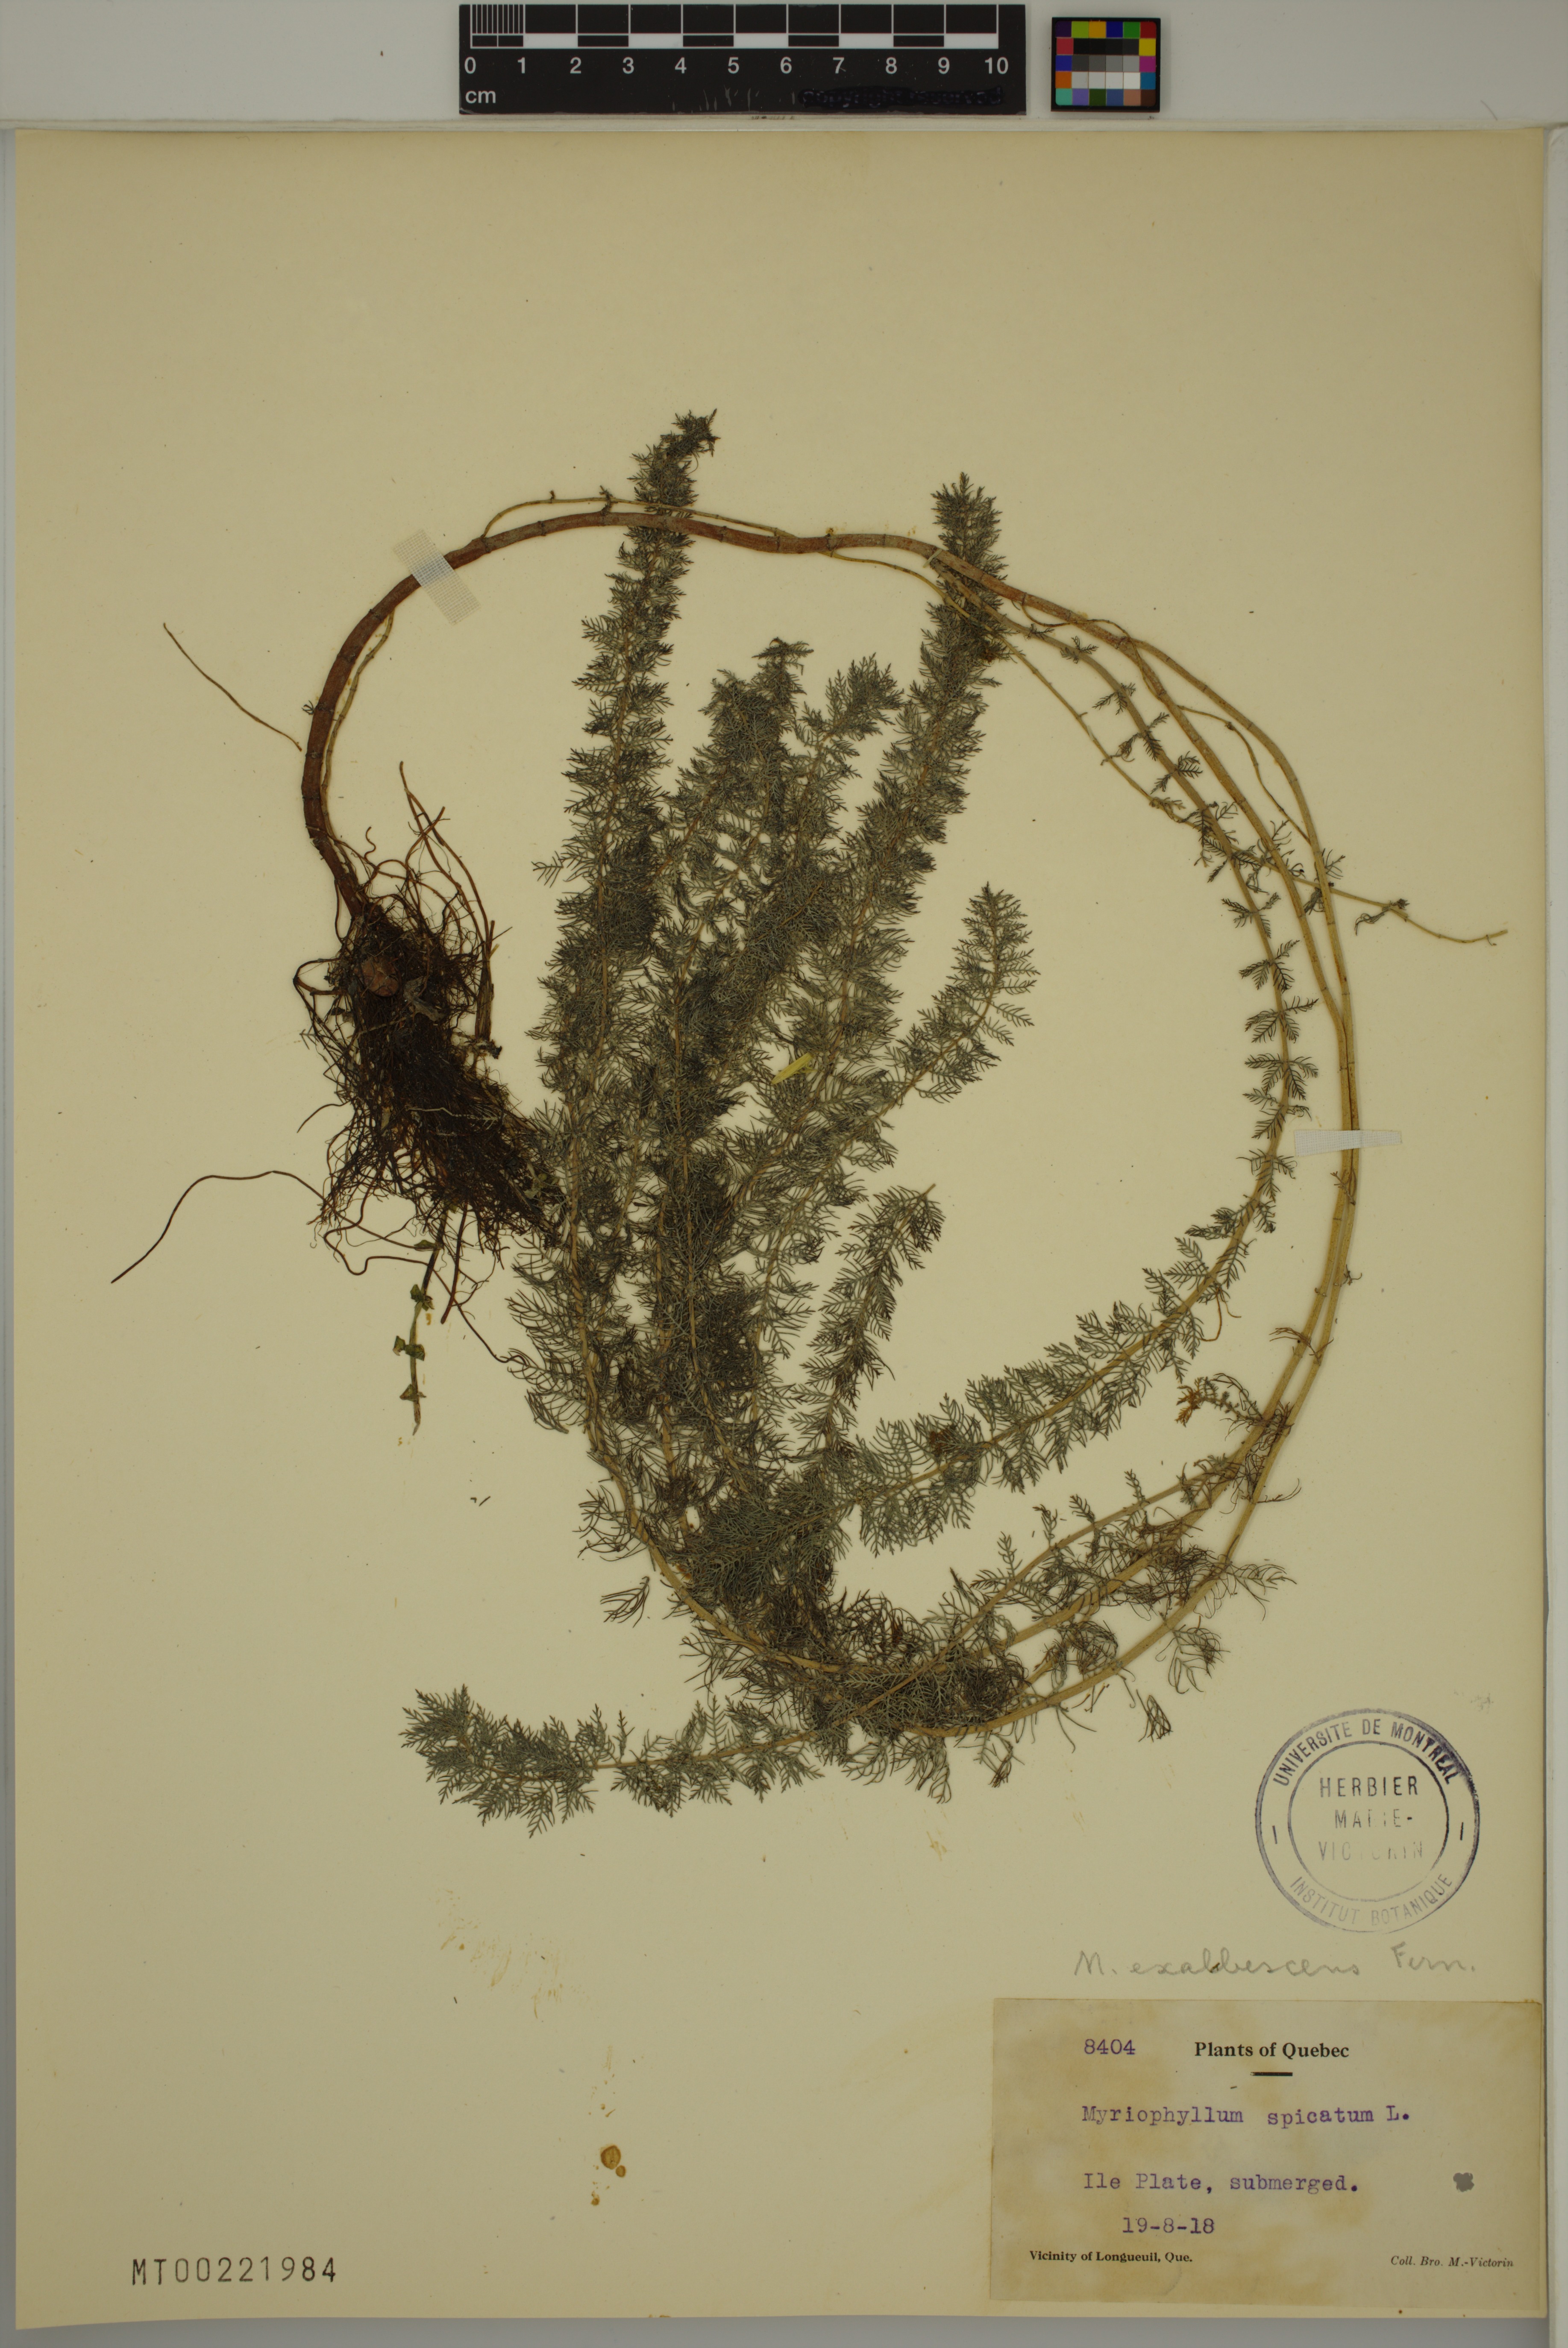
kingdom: Plantae
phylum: Tracheophyta
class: Magnoliopsida
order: Saxifragales
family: Haloragaceae
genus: Myriophyllum
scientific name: Myriophyllum sibiricum
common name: Siberian water-milfoil
